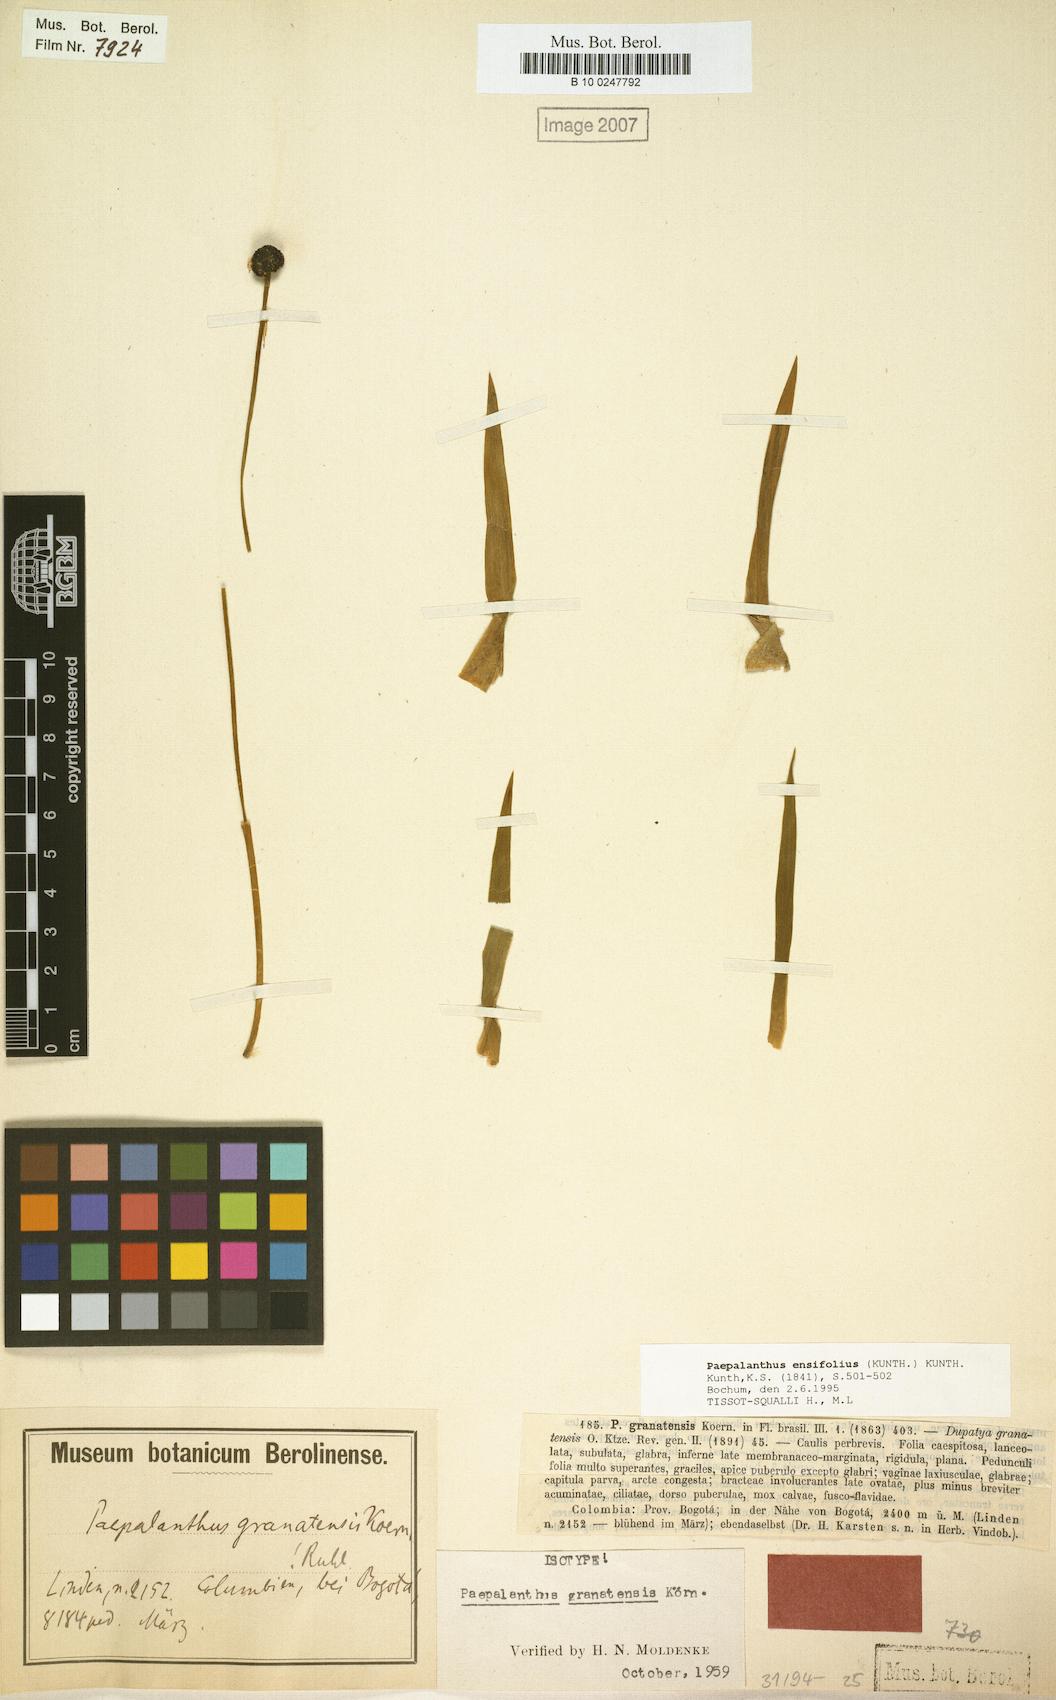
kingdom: Plantae
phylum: Tracheophyta
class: Liliopsida
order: Poales
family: Eriocaulaceae
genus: Paepalanthus
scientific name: Paepalanthus ensifolius
